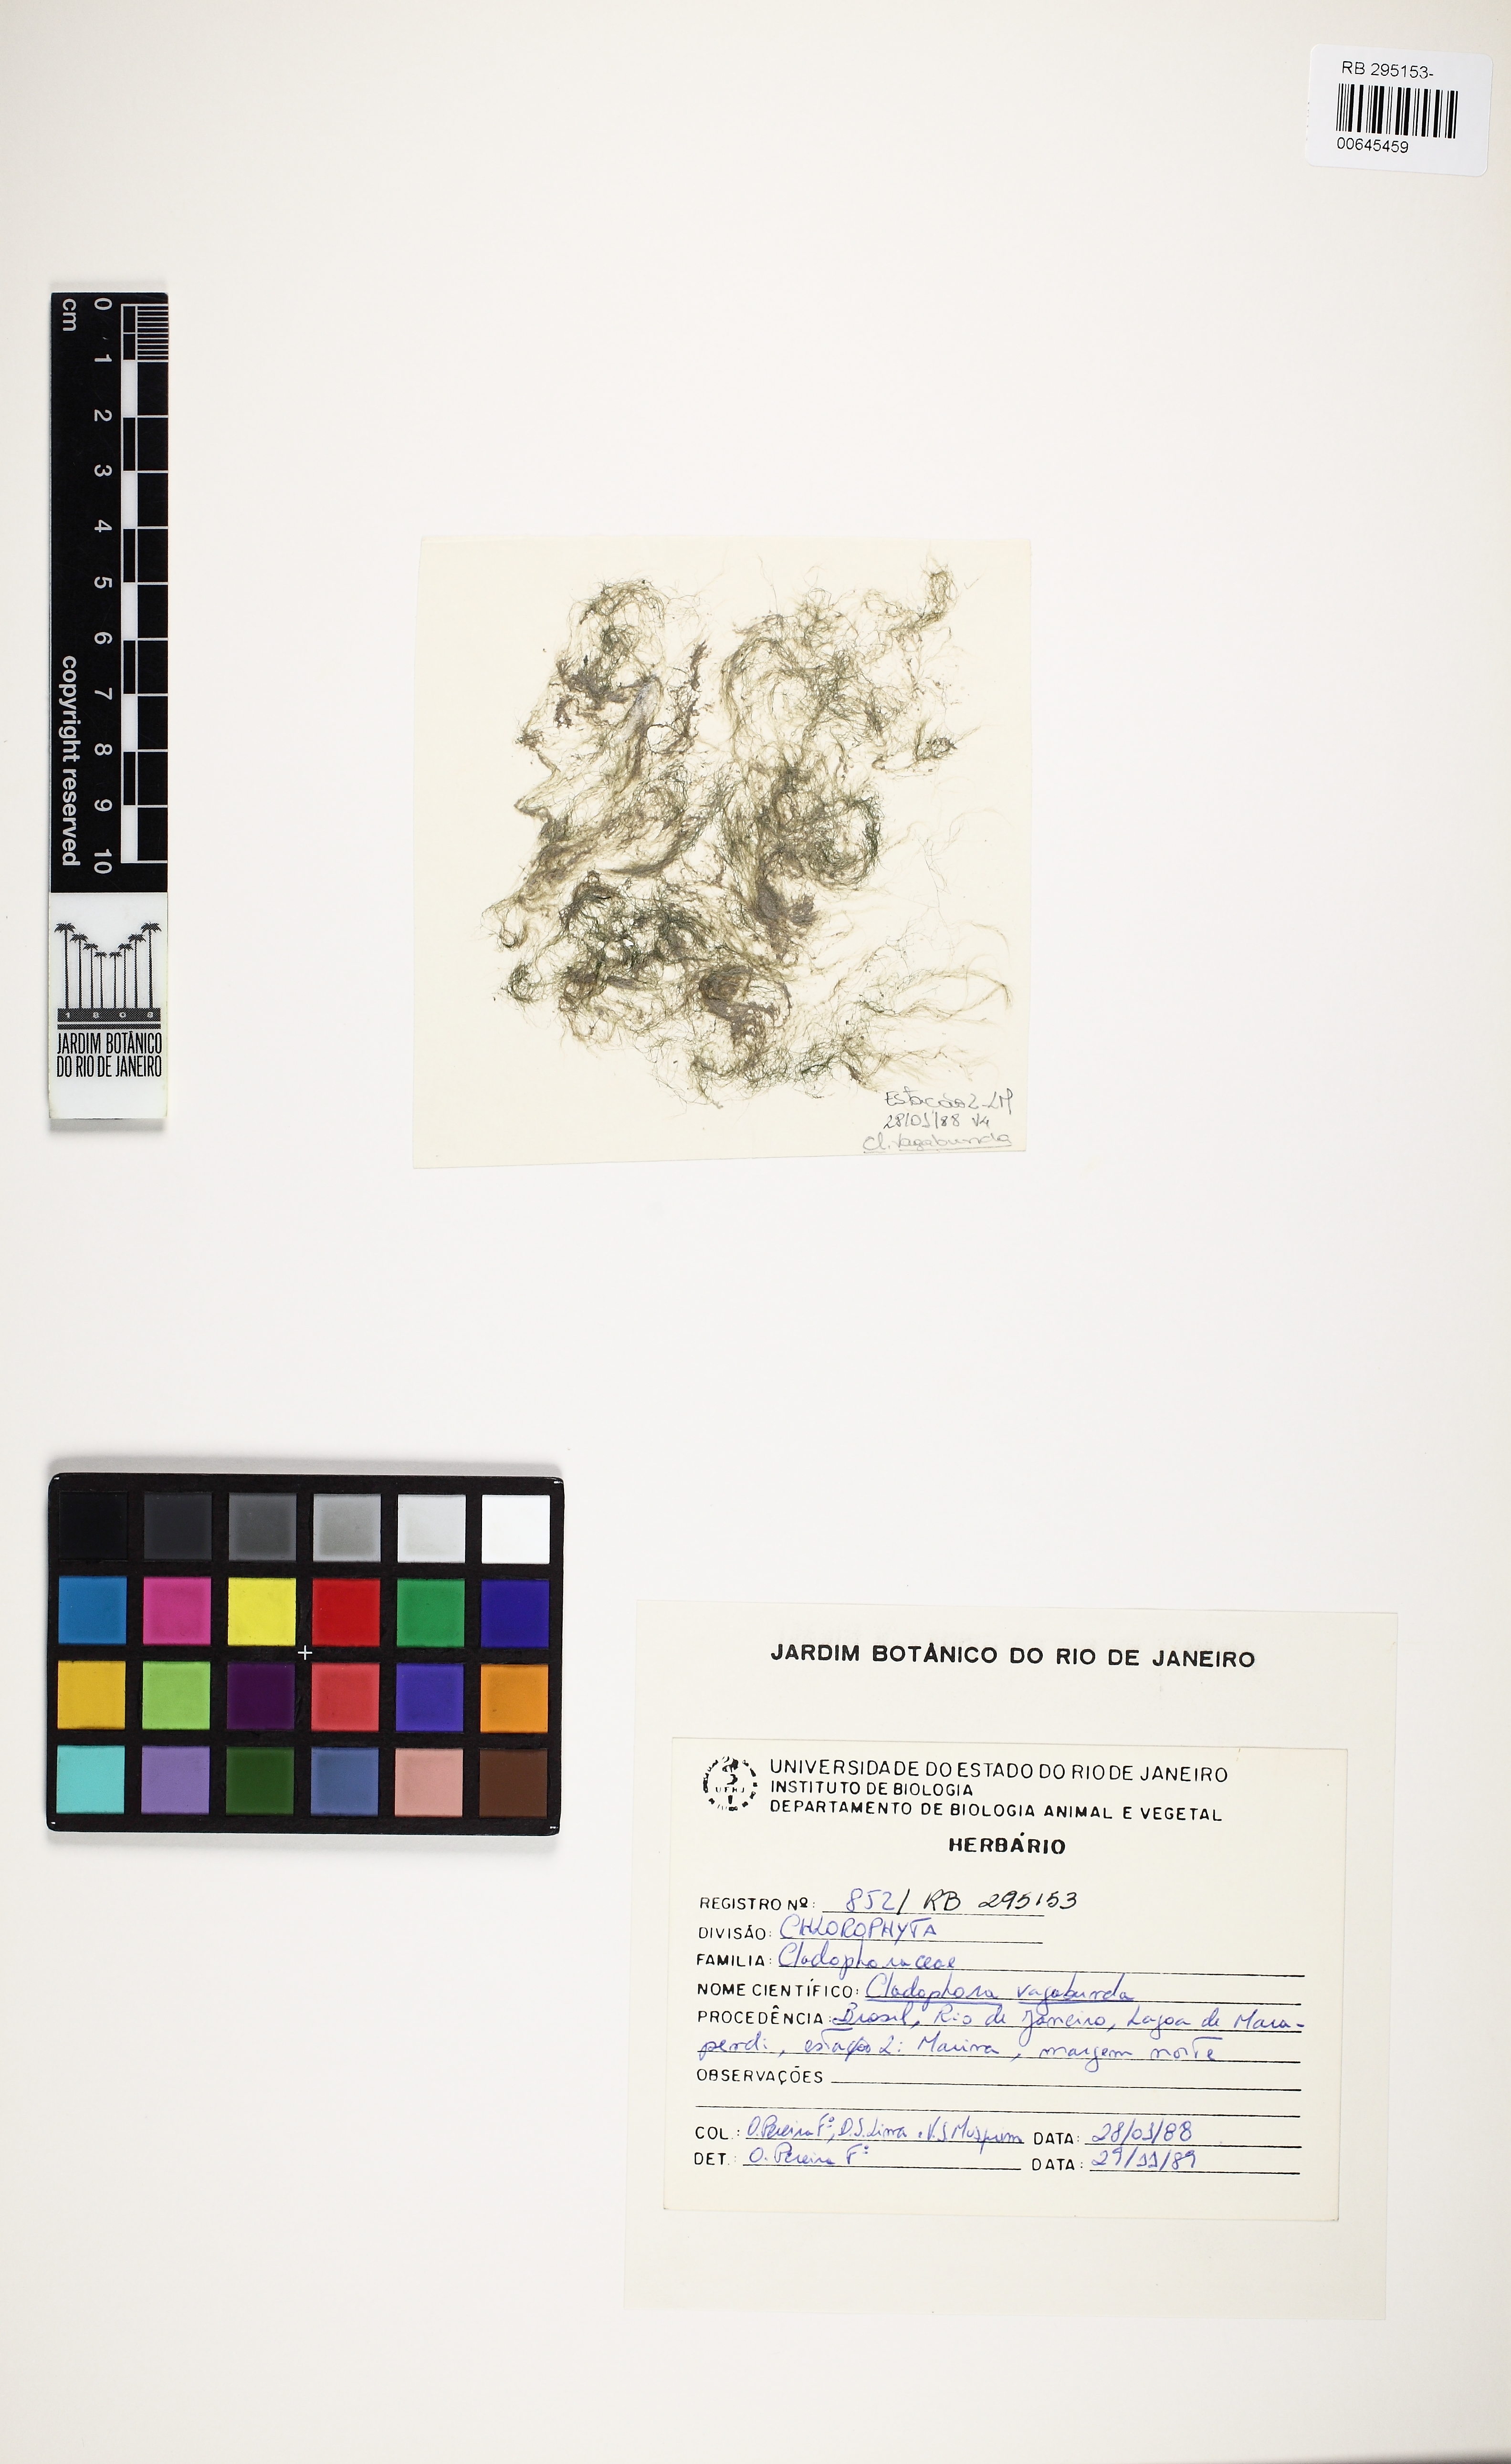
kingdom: Plantae
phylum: Chlorophyta
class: Ulvophyceae
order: Cladophorales
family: Cladophoraceae
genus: Cladophora
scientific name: Cladophora vagabunda
